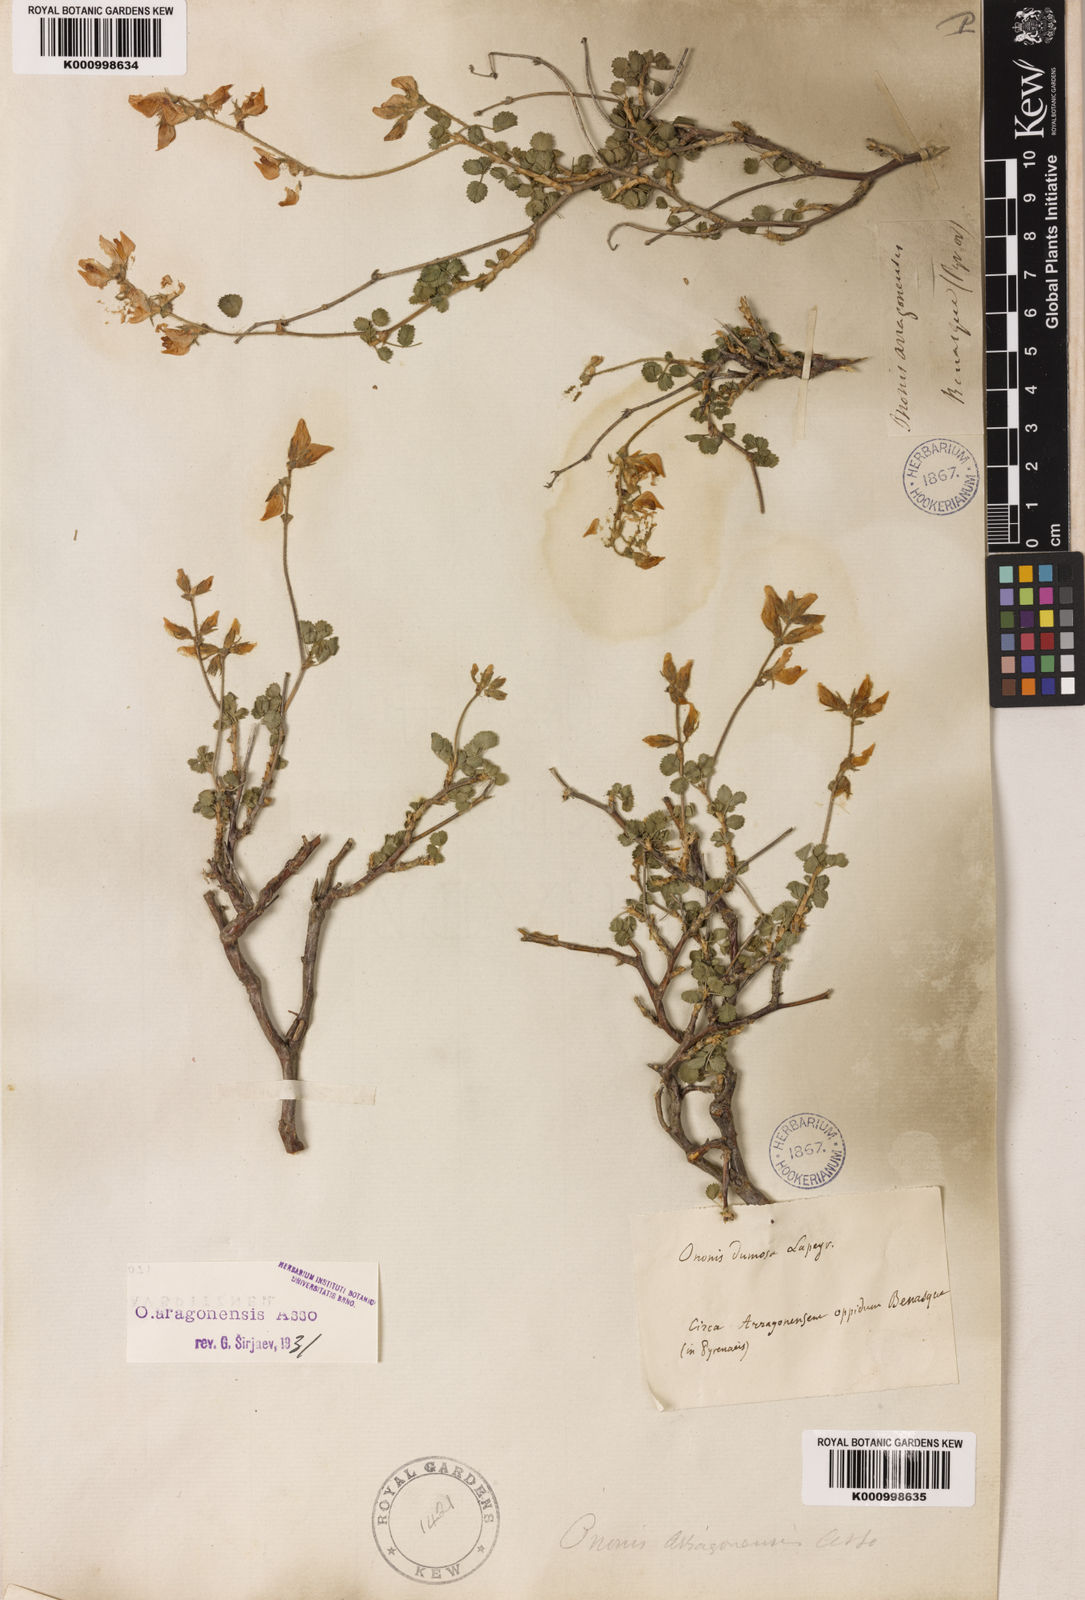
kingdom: Plantae
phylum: Tracheophyta
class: Magnoliopsida
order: Fabales
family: Fabaceae
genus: Ononis
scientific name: Ononis aragonensis
